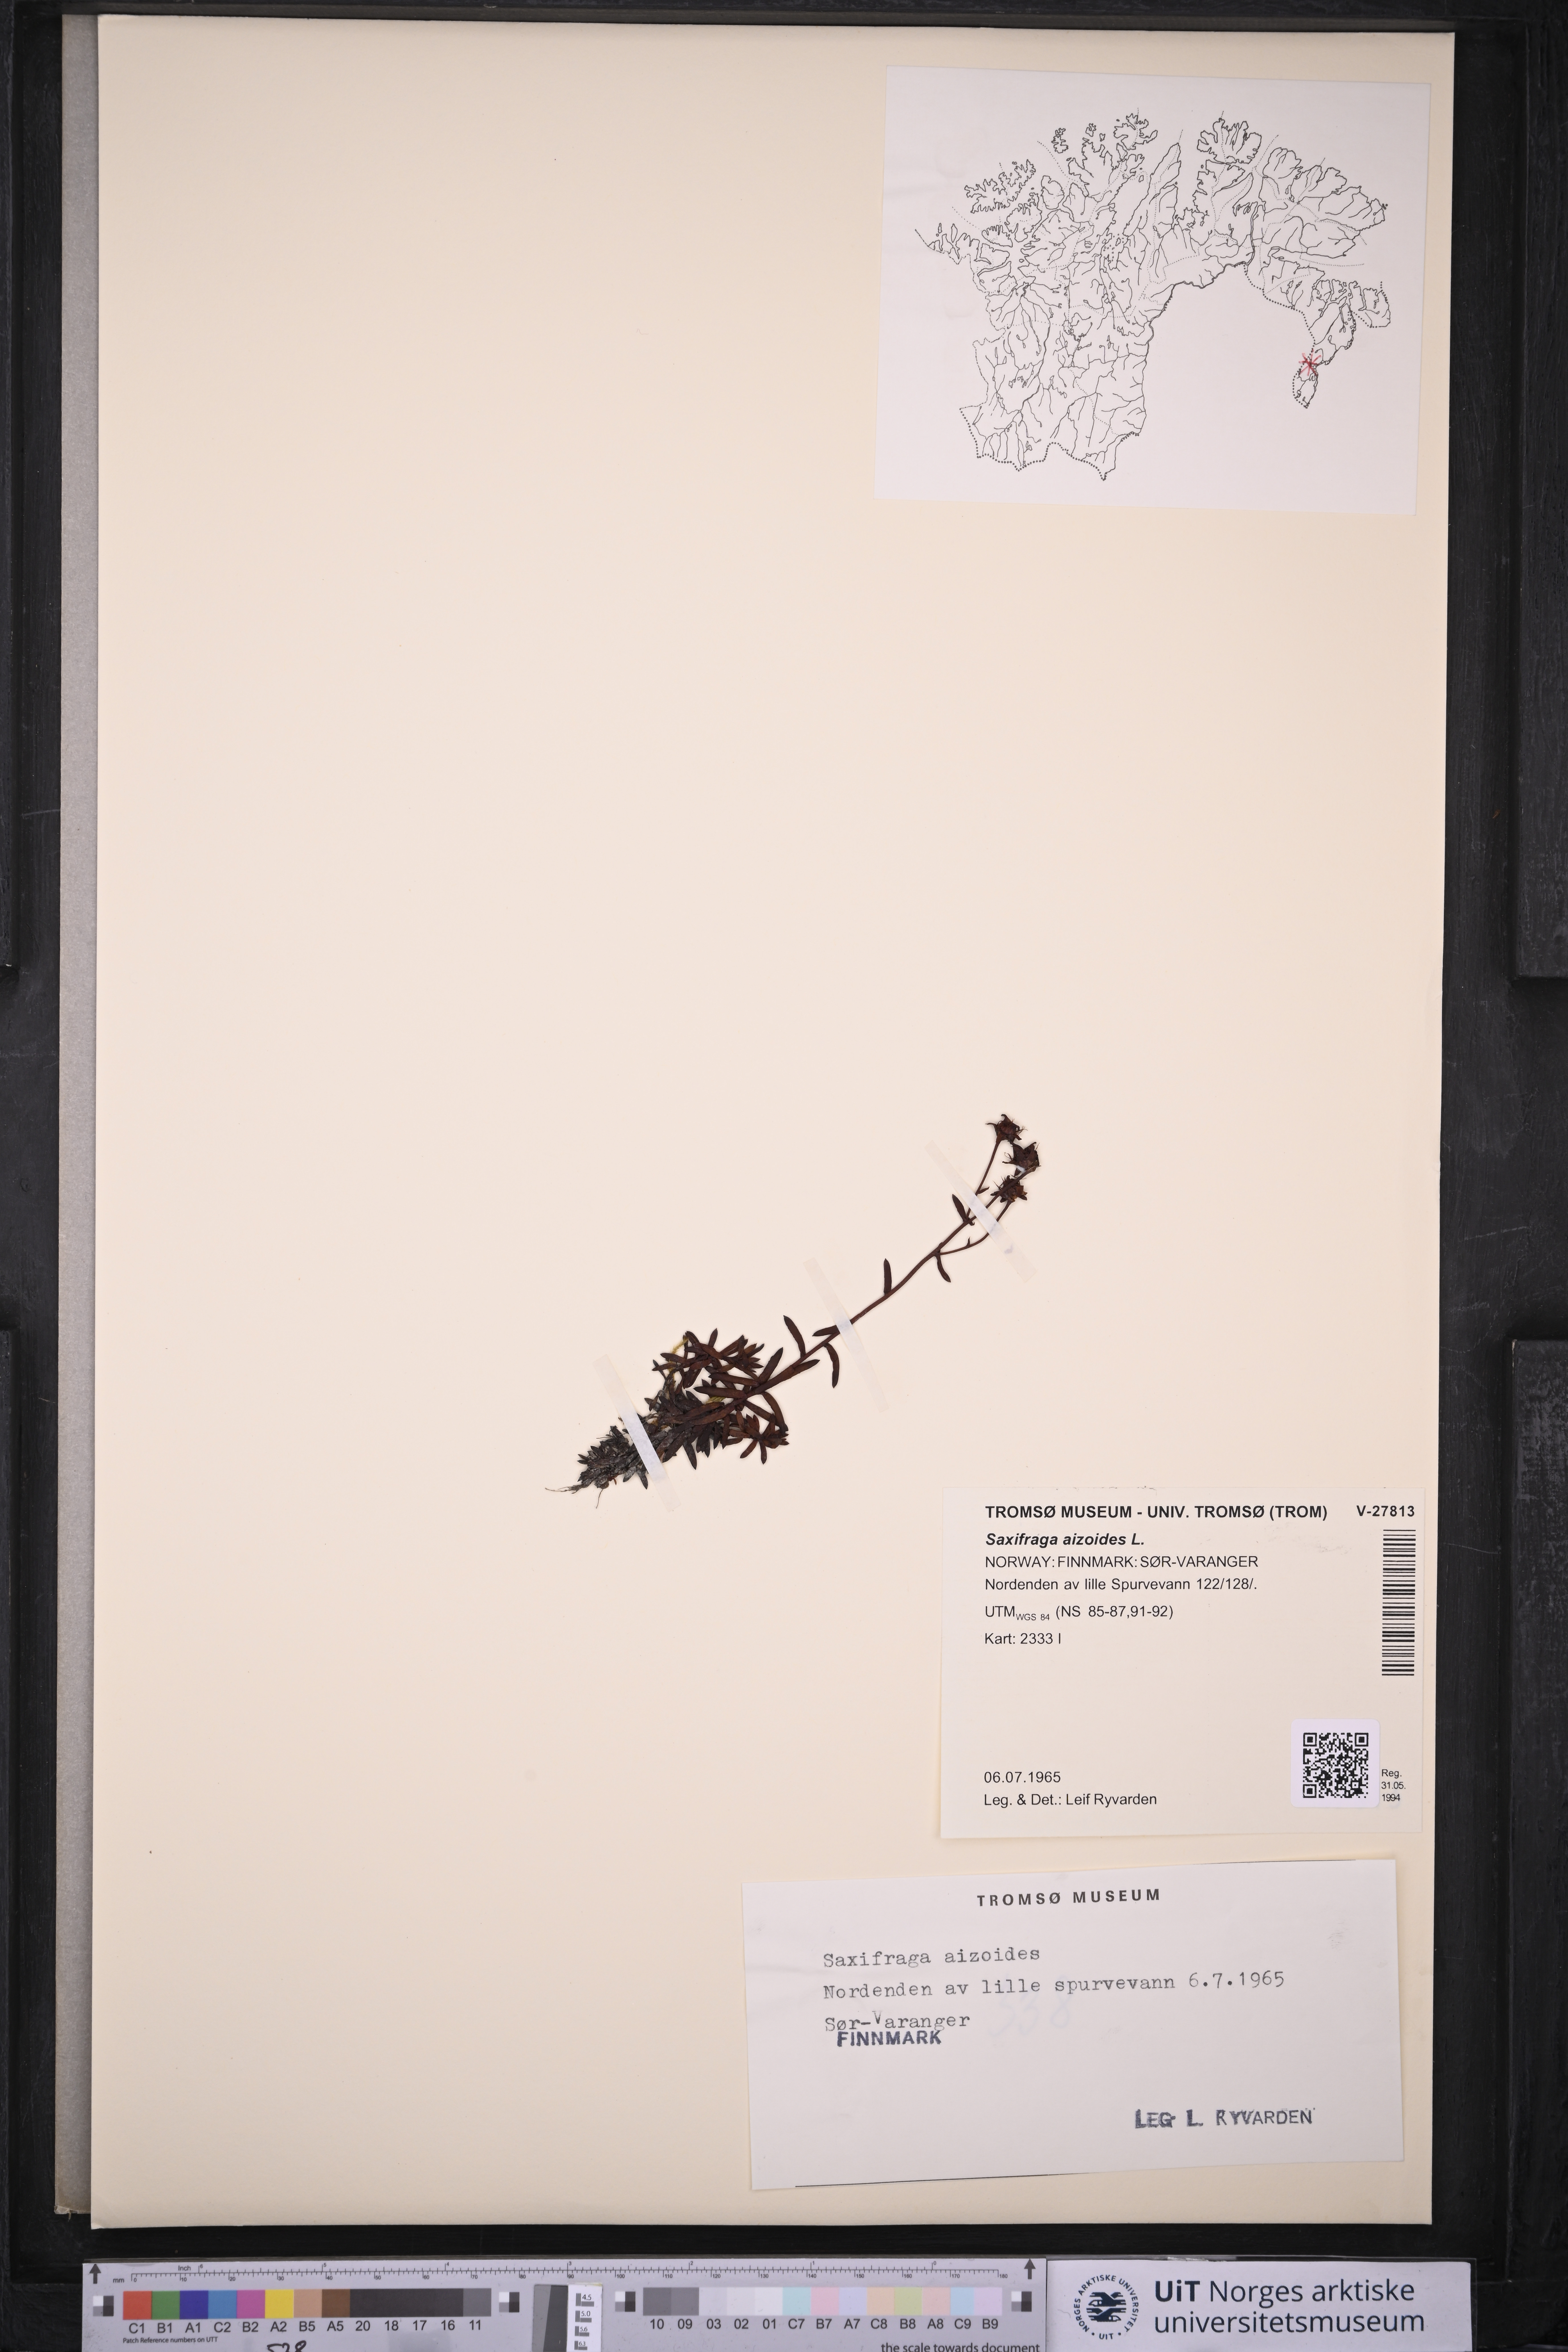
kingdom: Plantae
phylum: Tracheophyta
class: Magnoliopsida
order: Saxifragales
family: Saxifragaceae
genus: Saxifraga
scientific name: Saxifraga aizoides
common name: Yellow mountain saxifrage
